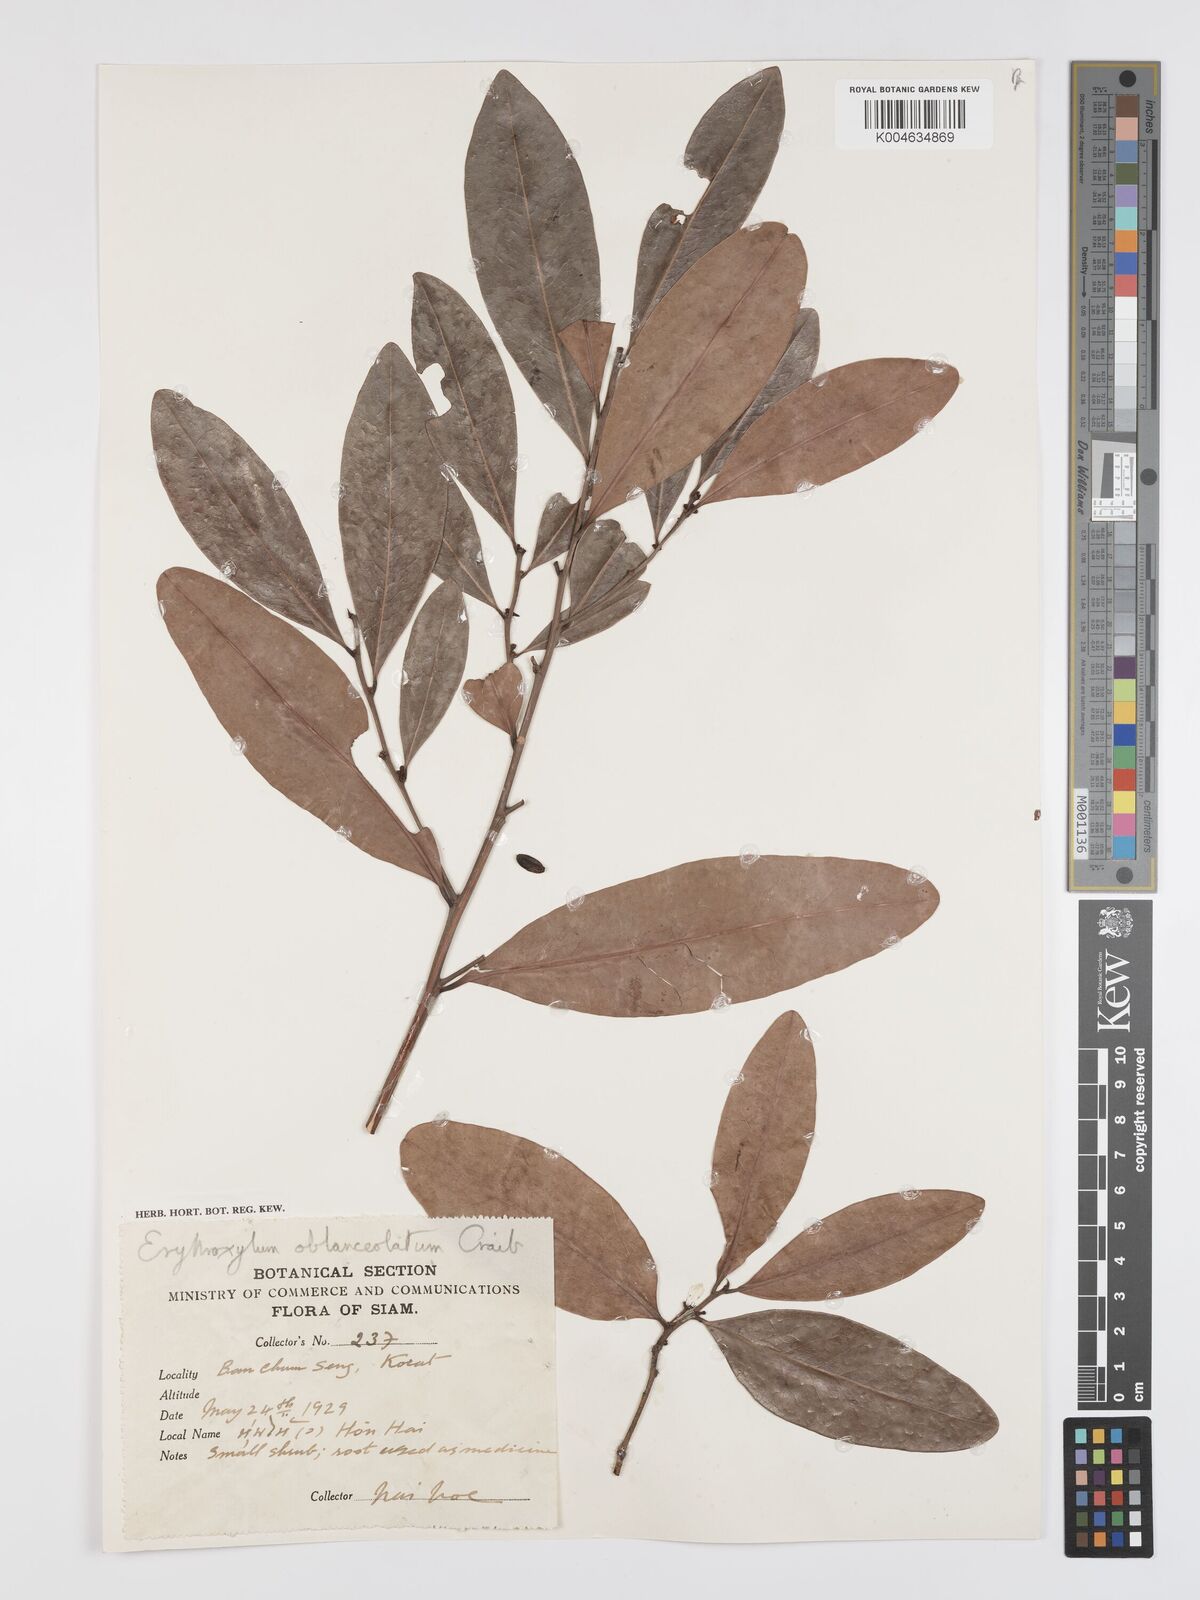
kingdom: Plantae
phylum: Tracheophyta
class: Magnoliopsida
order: Malpighiales
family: Erythroxylaceae
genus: Erythroxylum
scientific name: Erythroxylum cuneatum
